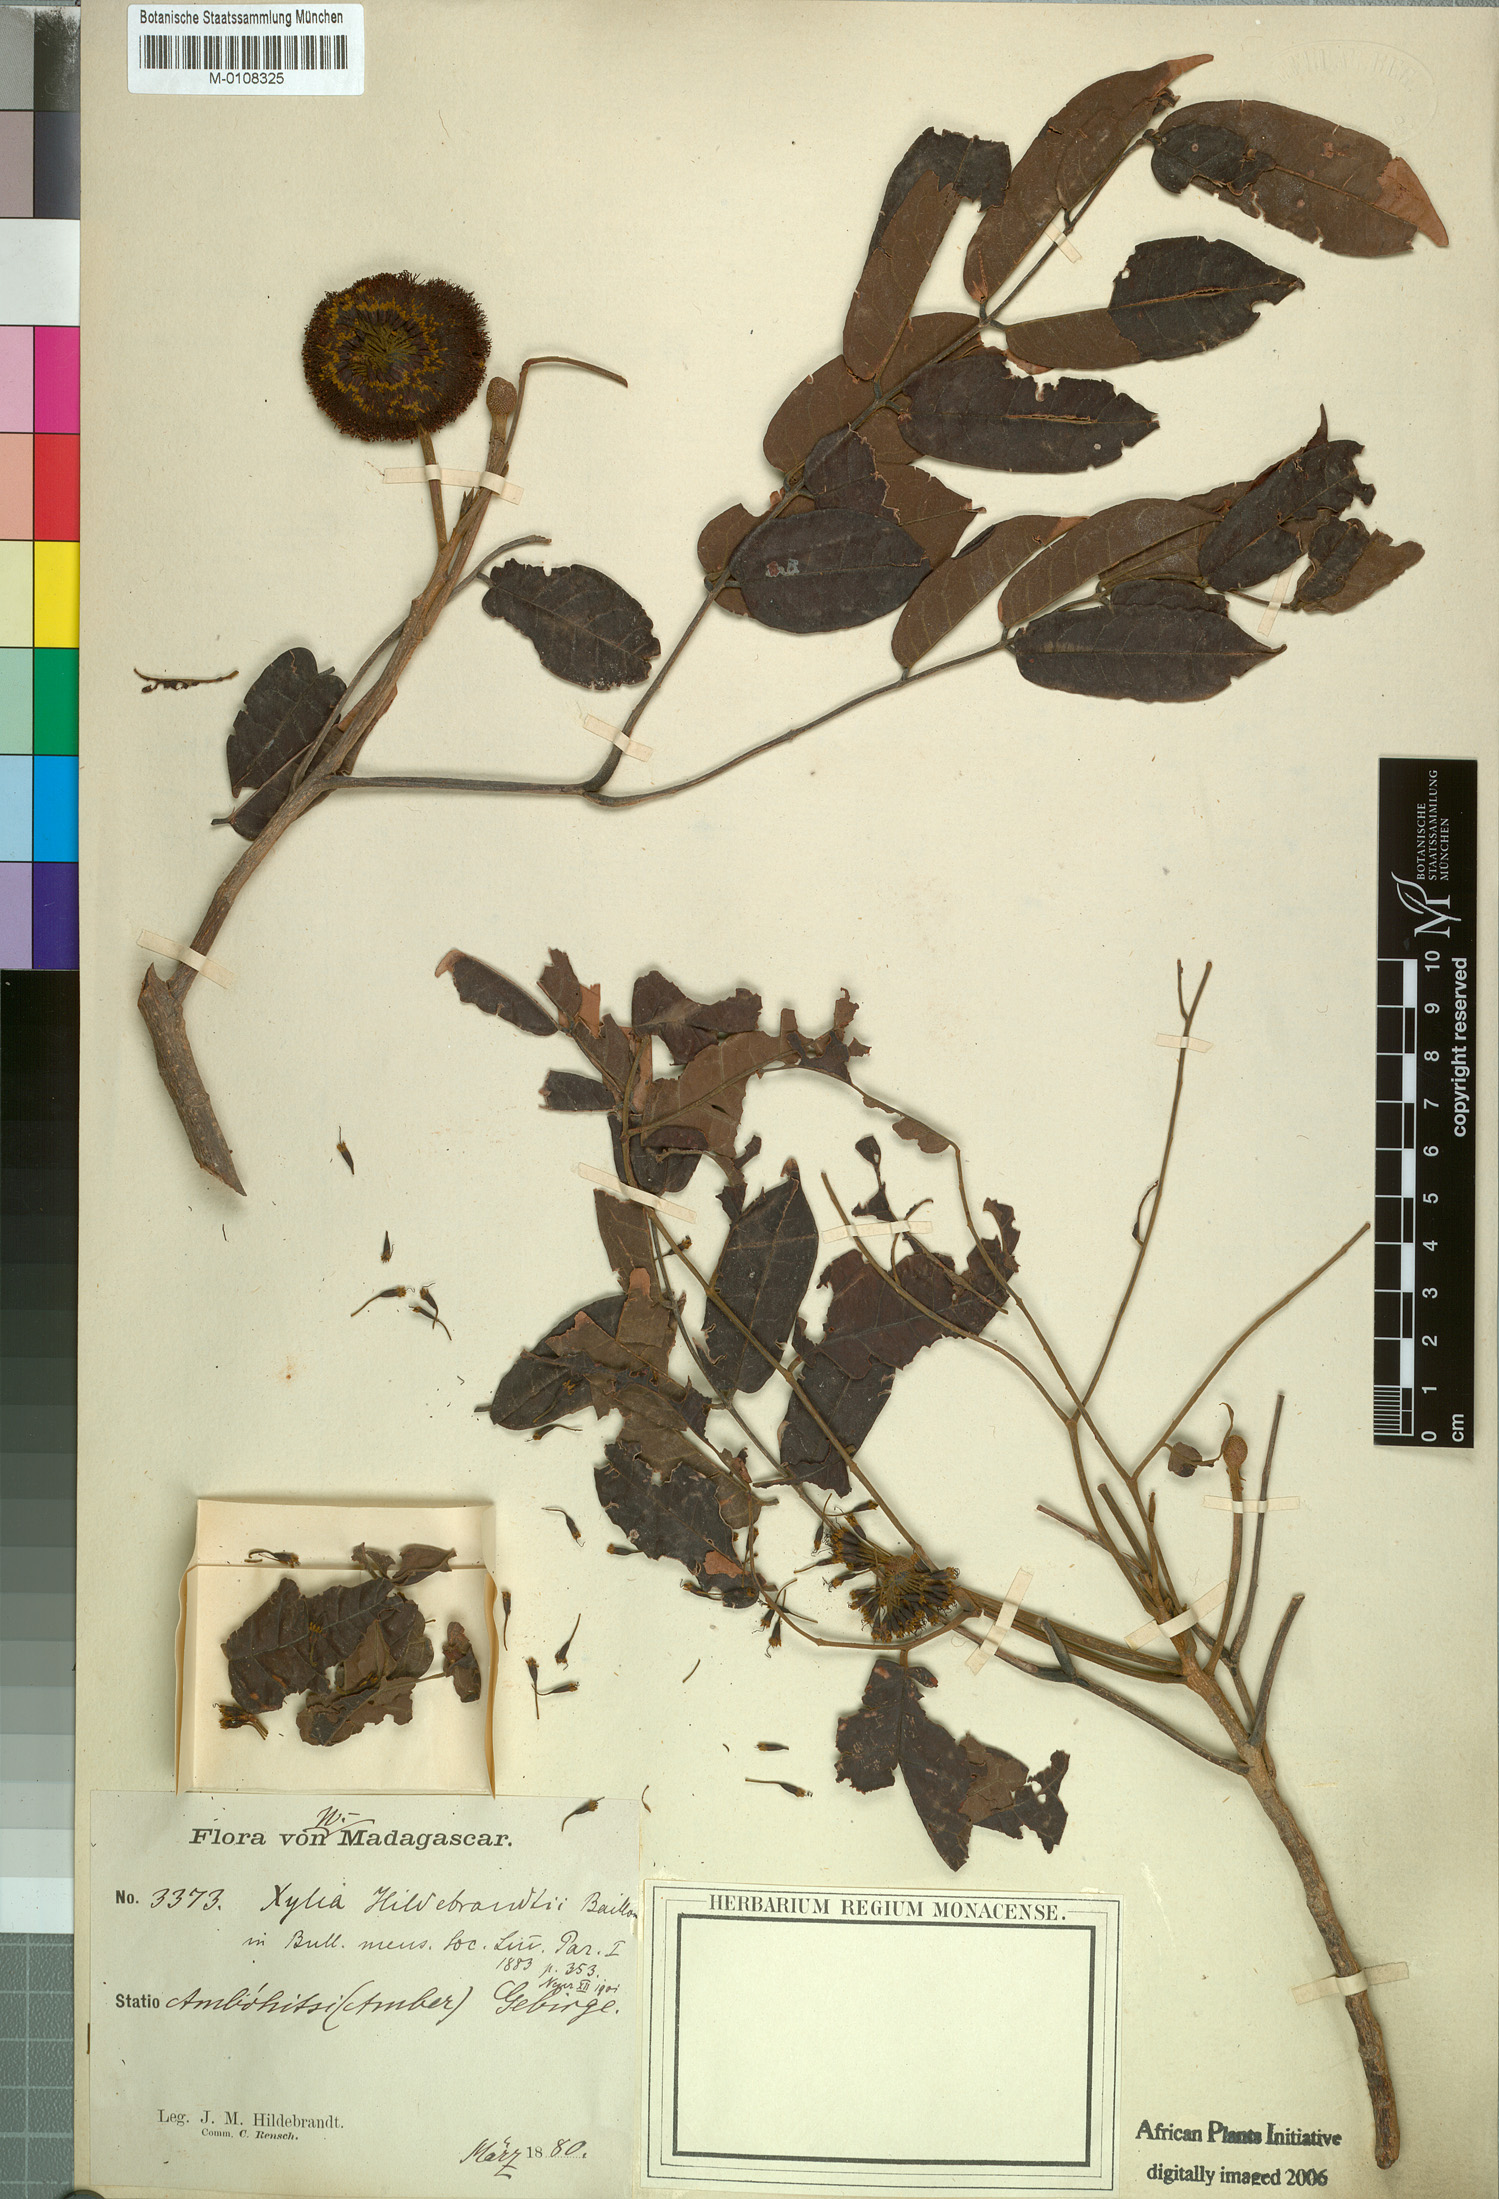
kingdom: Plantae
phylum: Tracheophyta
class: Magnoliopsida
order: Fabales
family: Fabaceae
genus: Xylia
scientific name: Xylia hoffmannii
